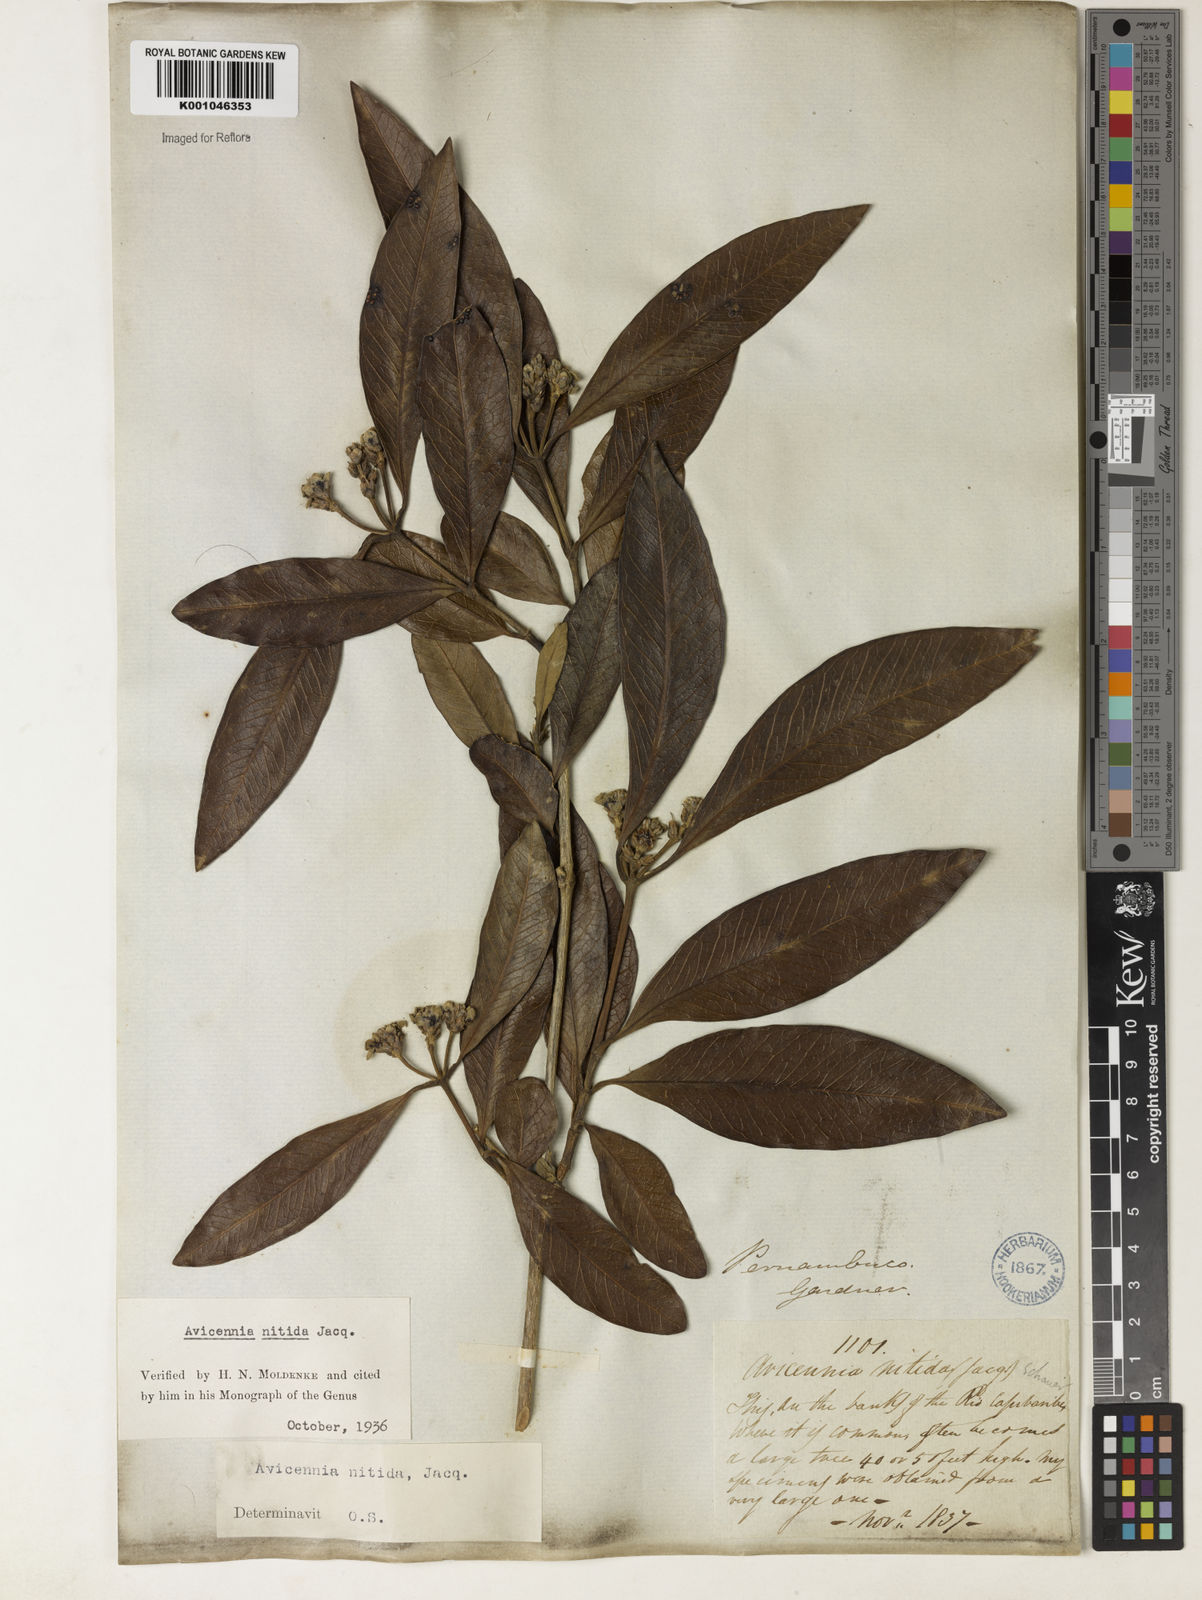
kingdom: Plantae
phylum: Tracheophyta
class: Magnoliopsida
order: Lamiales
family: Acanthaceae
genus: Avicennia
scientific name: Avicennia germinans
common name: Black mangrove
